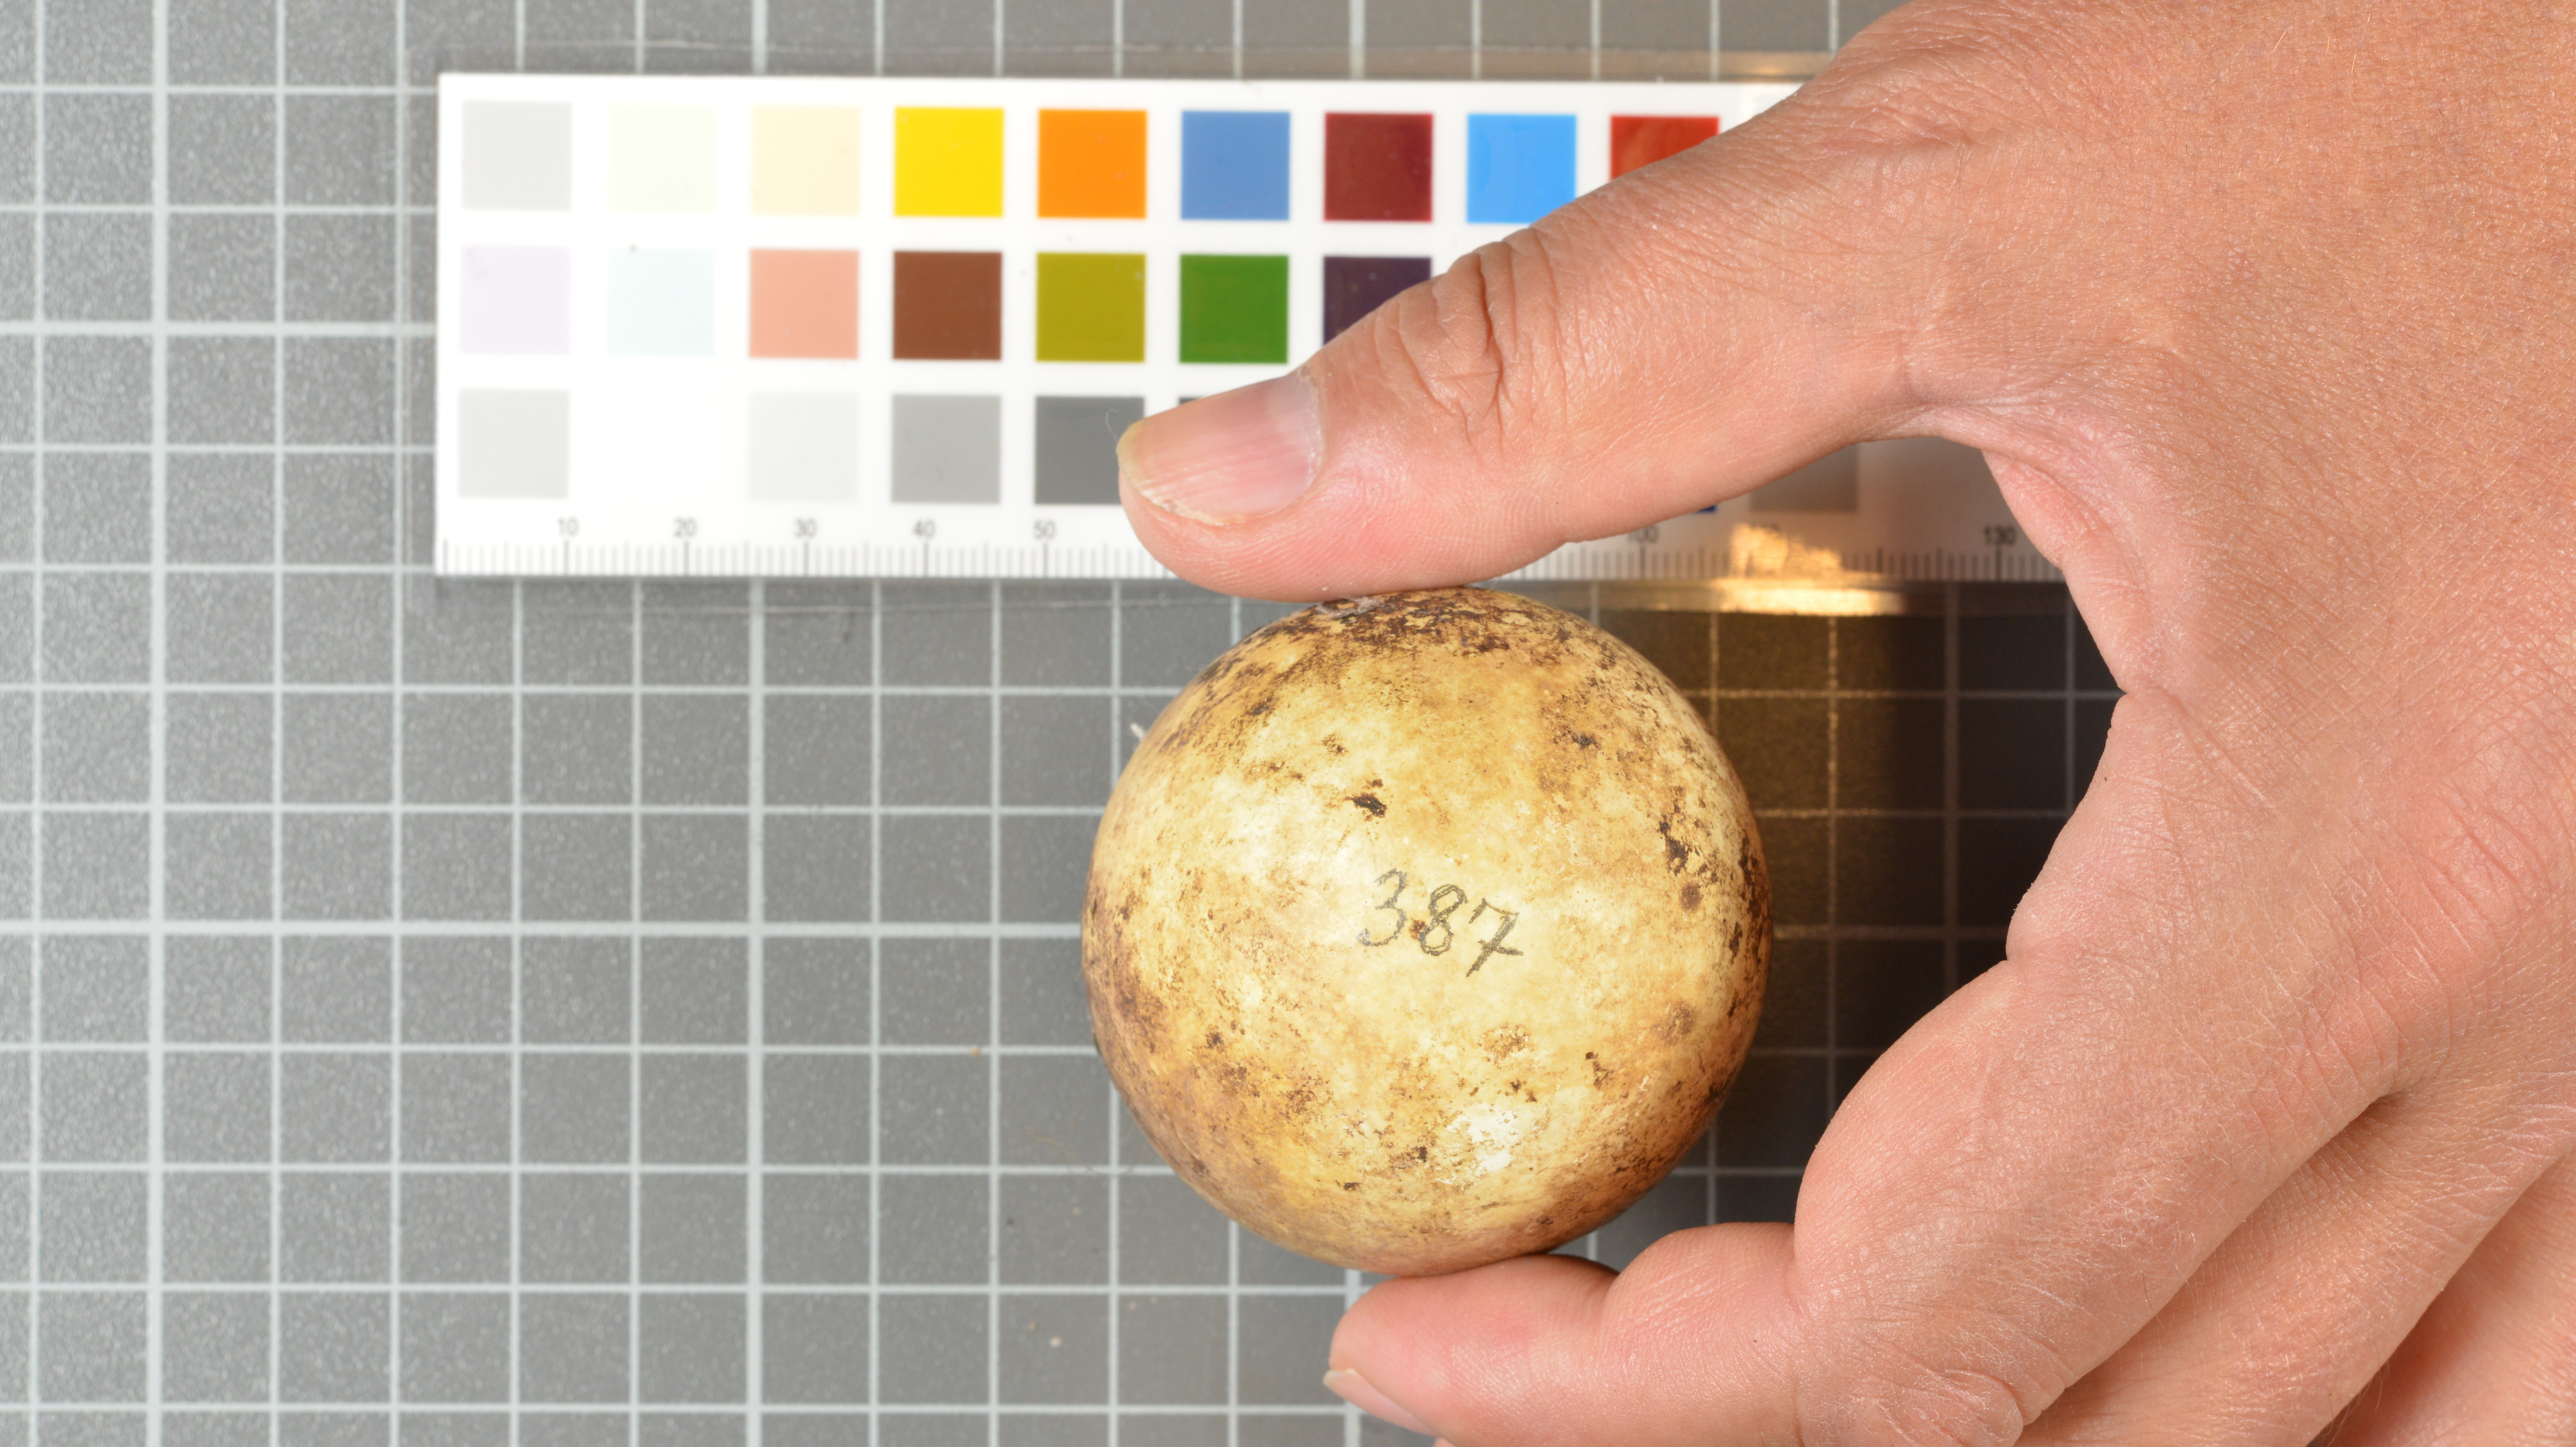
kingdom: Animalia
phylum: Chordata
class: Aves
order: Sphenisciformes
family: Spheniscidae
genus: Eudyptes
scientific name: Eudyptes moseleyi
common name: Northern rockhopper penguin
